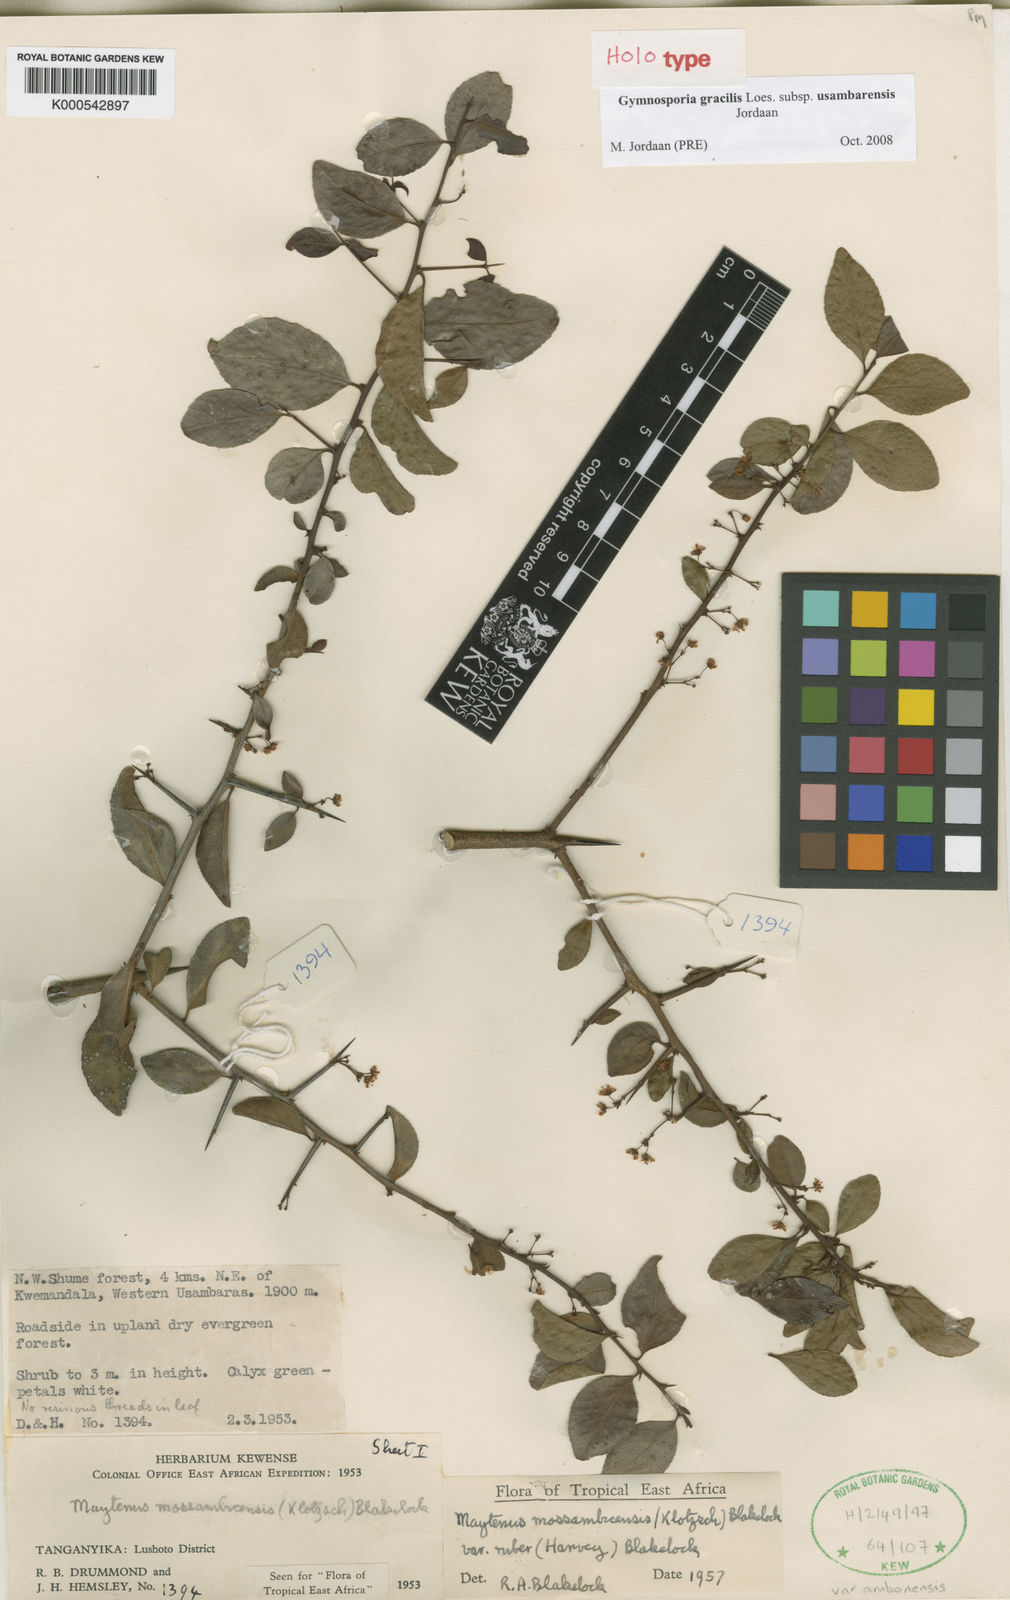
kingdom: Plantae
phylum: Tracheophyta
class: Magnoliopsida
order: Celastrales
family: Celastraceae
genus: Gymnosporia
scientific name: Gymnosporia mossambicensis
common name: Black forest spike-thorn
